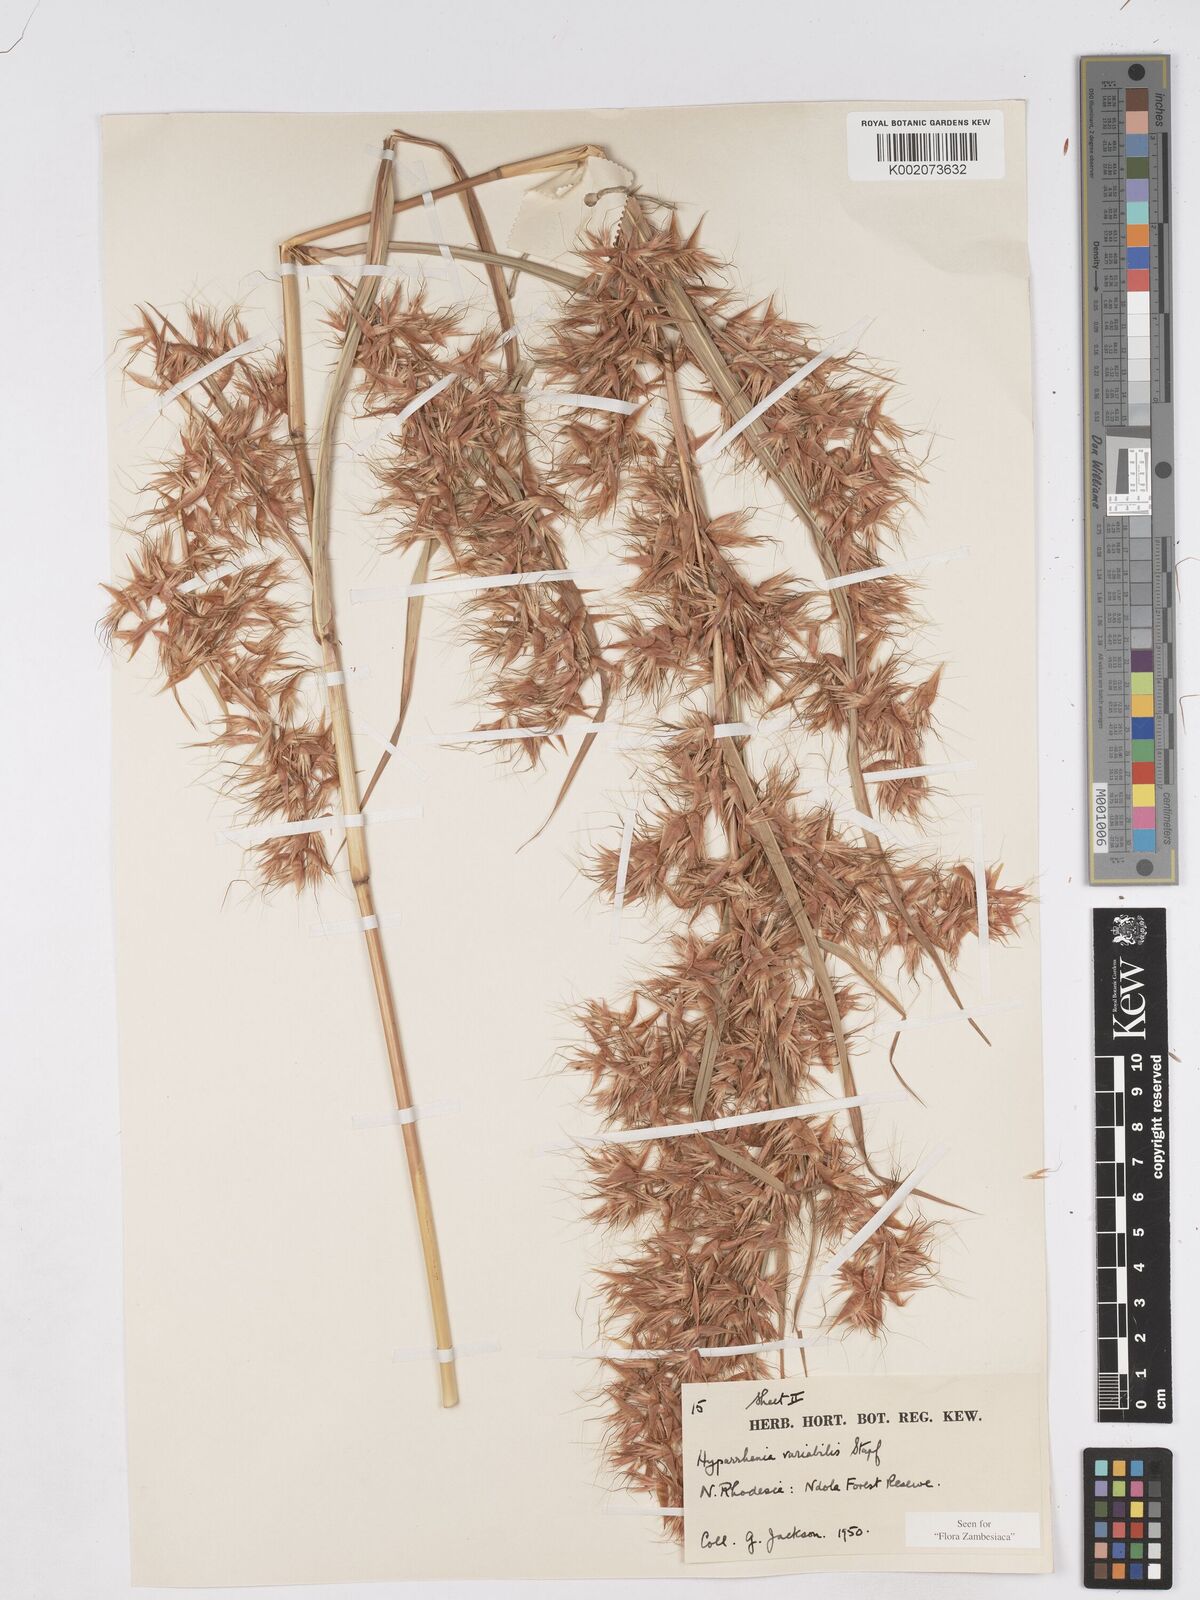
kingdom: Plantae
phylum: Tracheophyta
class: Liliopsida
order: Poales
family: Poaceae
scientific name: Poaceae
